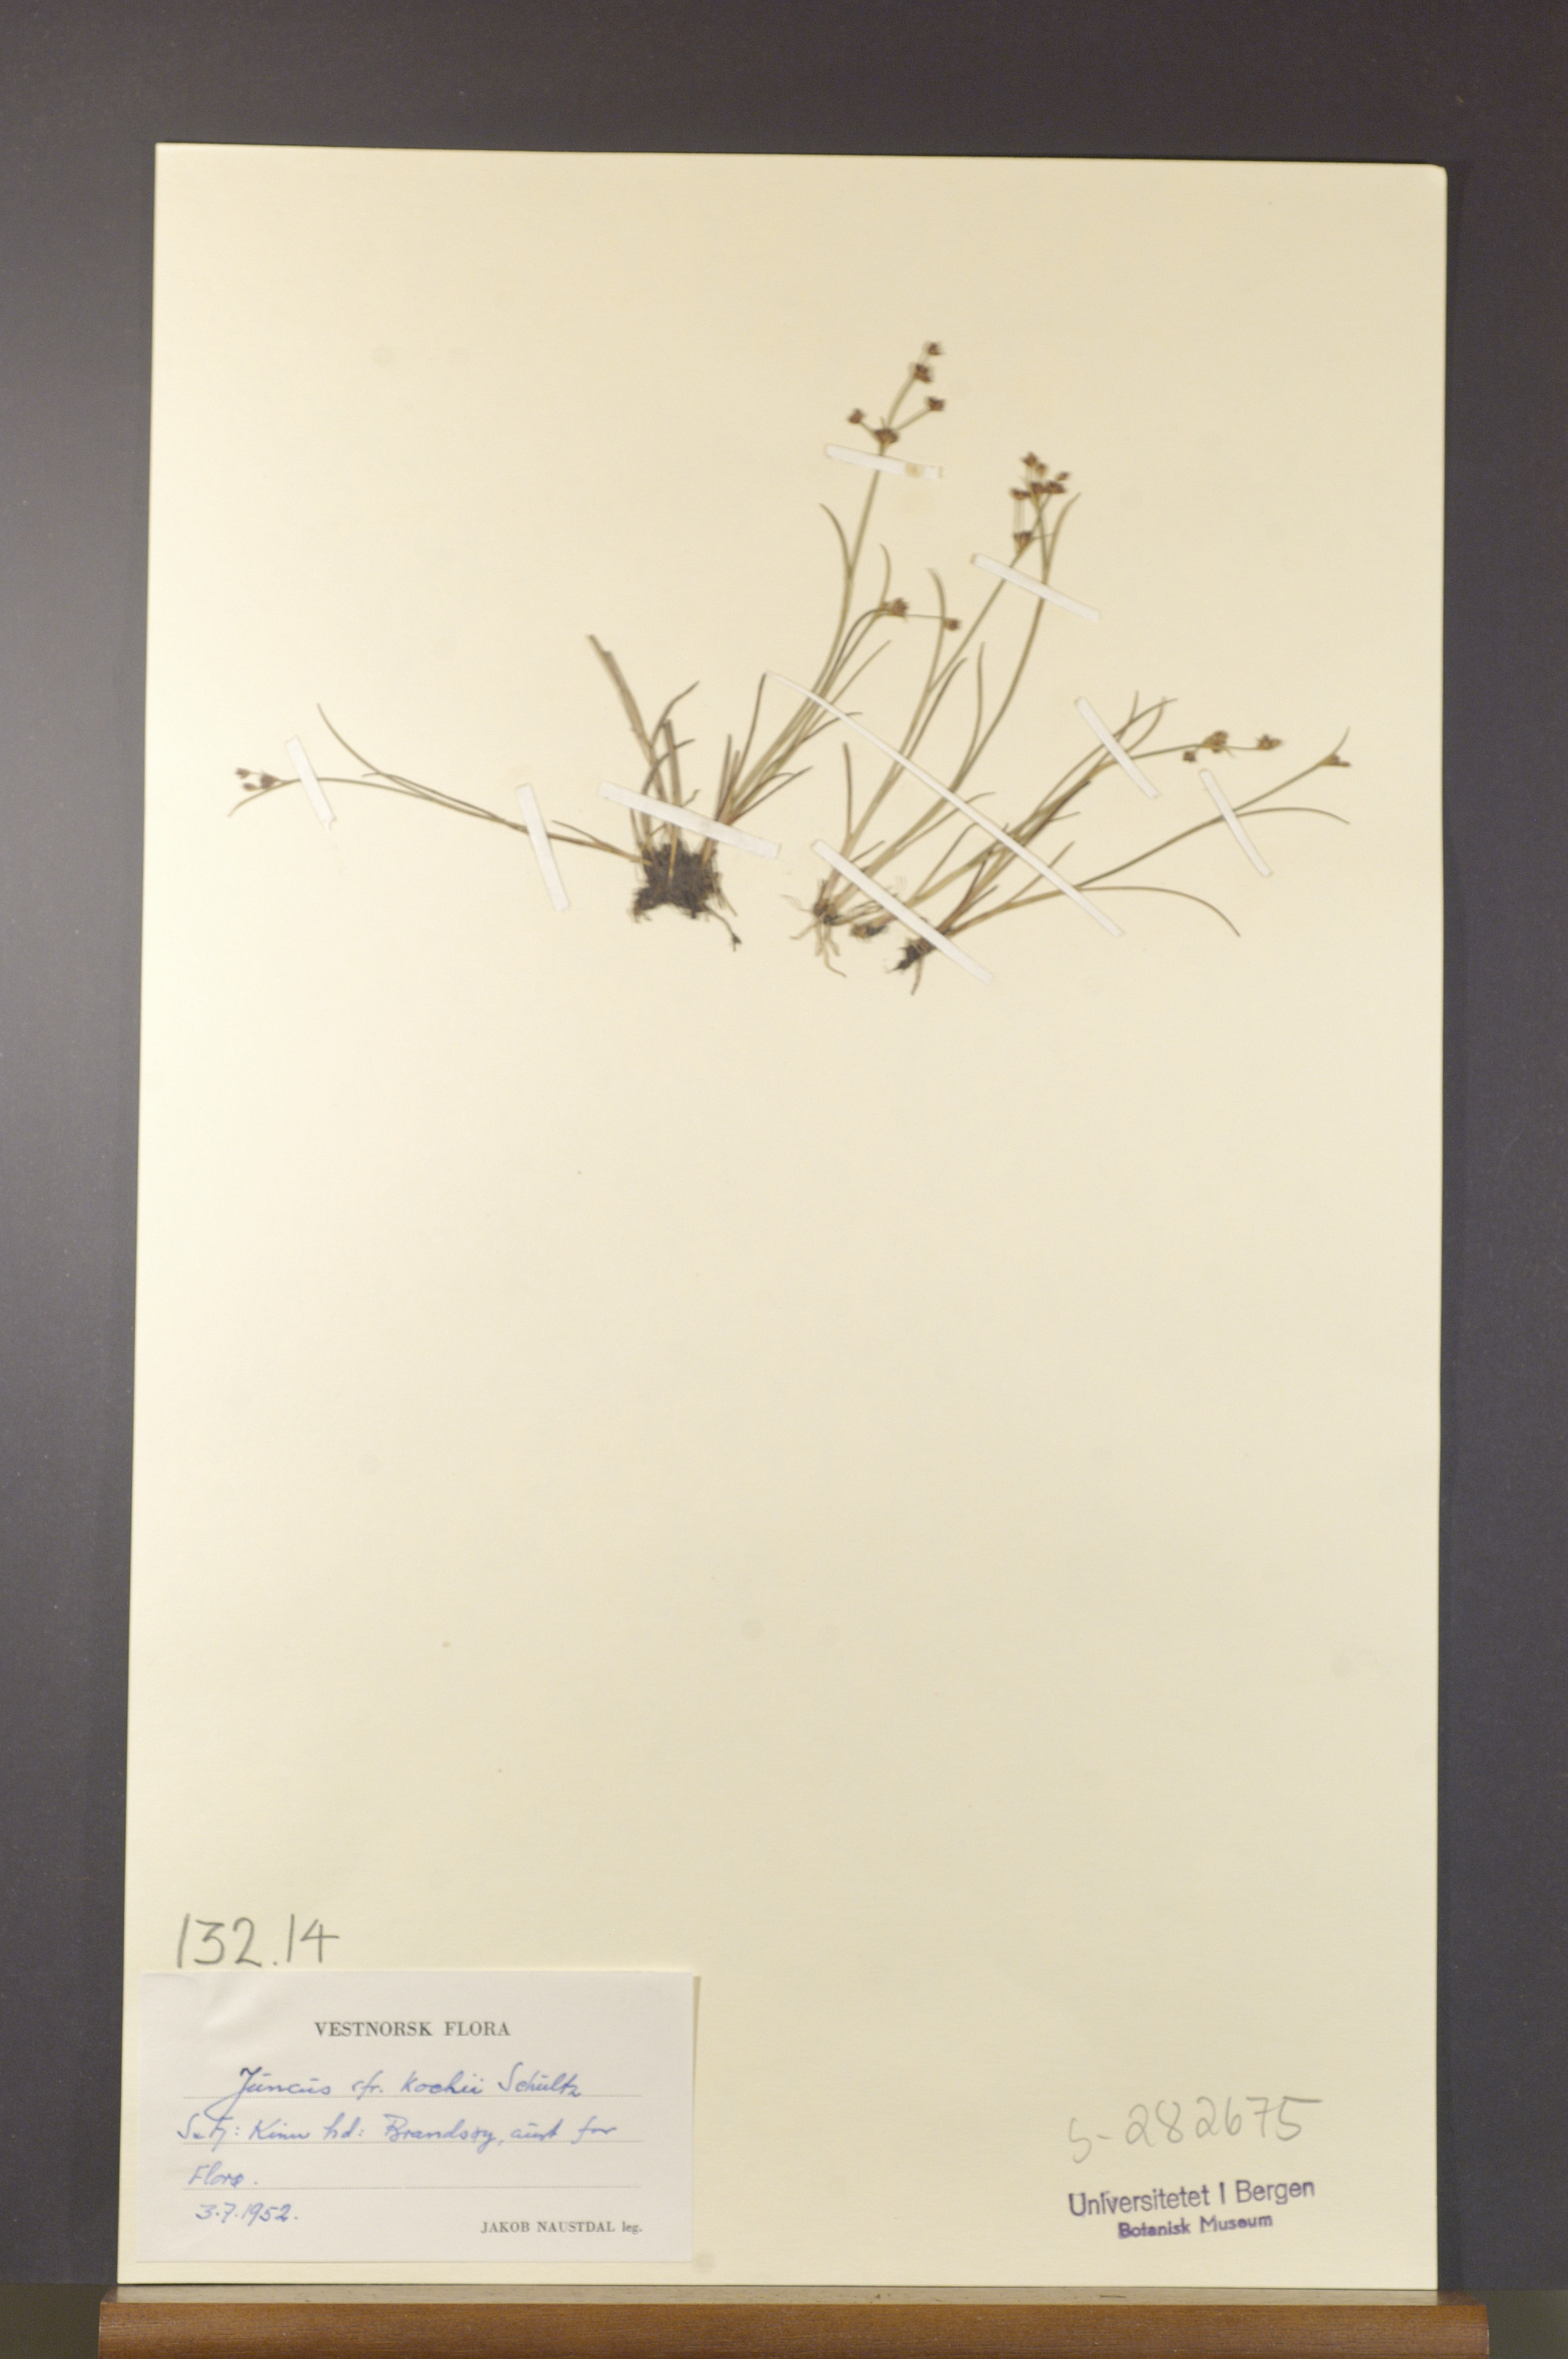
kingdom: Plantae
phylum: Tracheophyta
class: Liliopsida
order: Poales
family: Juncaceae
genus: Juncus
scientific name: Juncus bulbosus
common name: Bulbous rush
